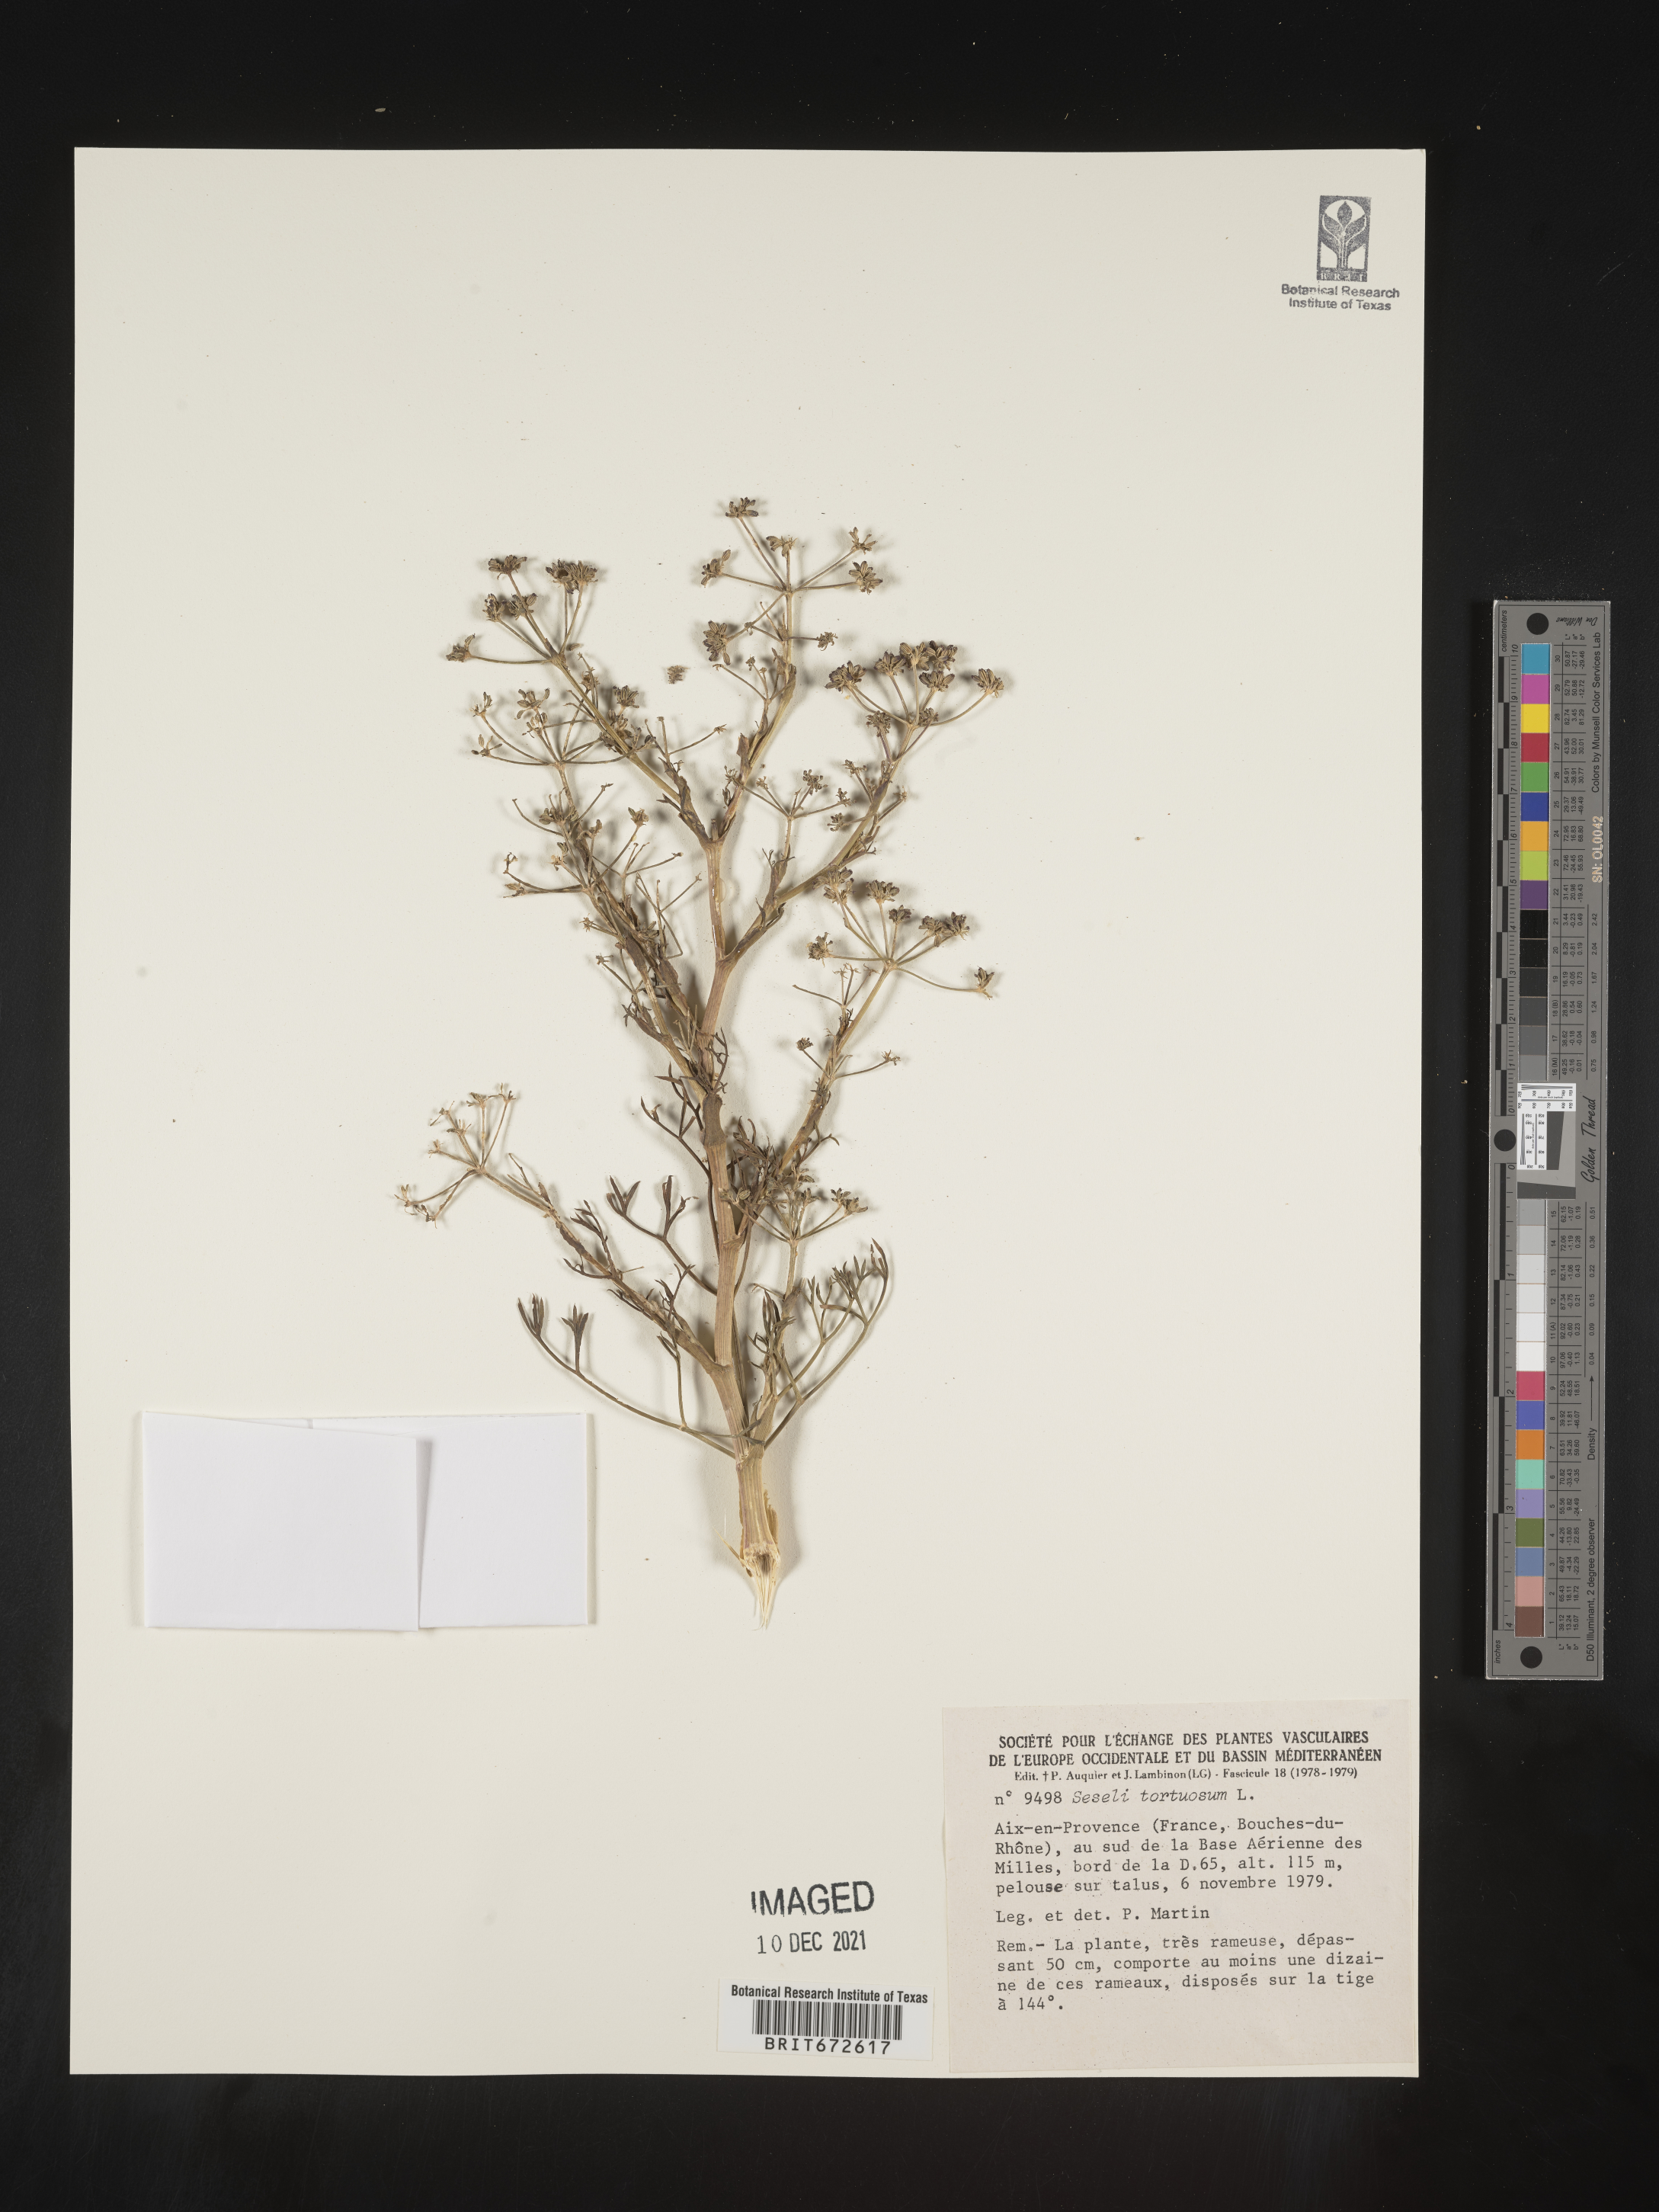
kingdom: Plantae
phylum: Tracheophyta
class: Magnoliopsida
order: Apiales
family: Apiaceae
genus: Seseli
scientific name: Seseli
